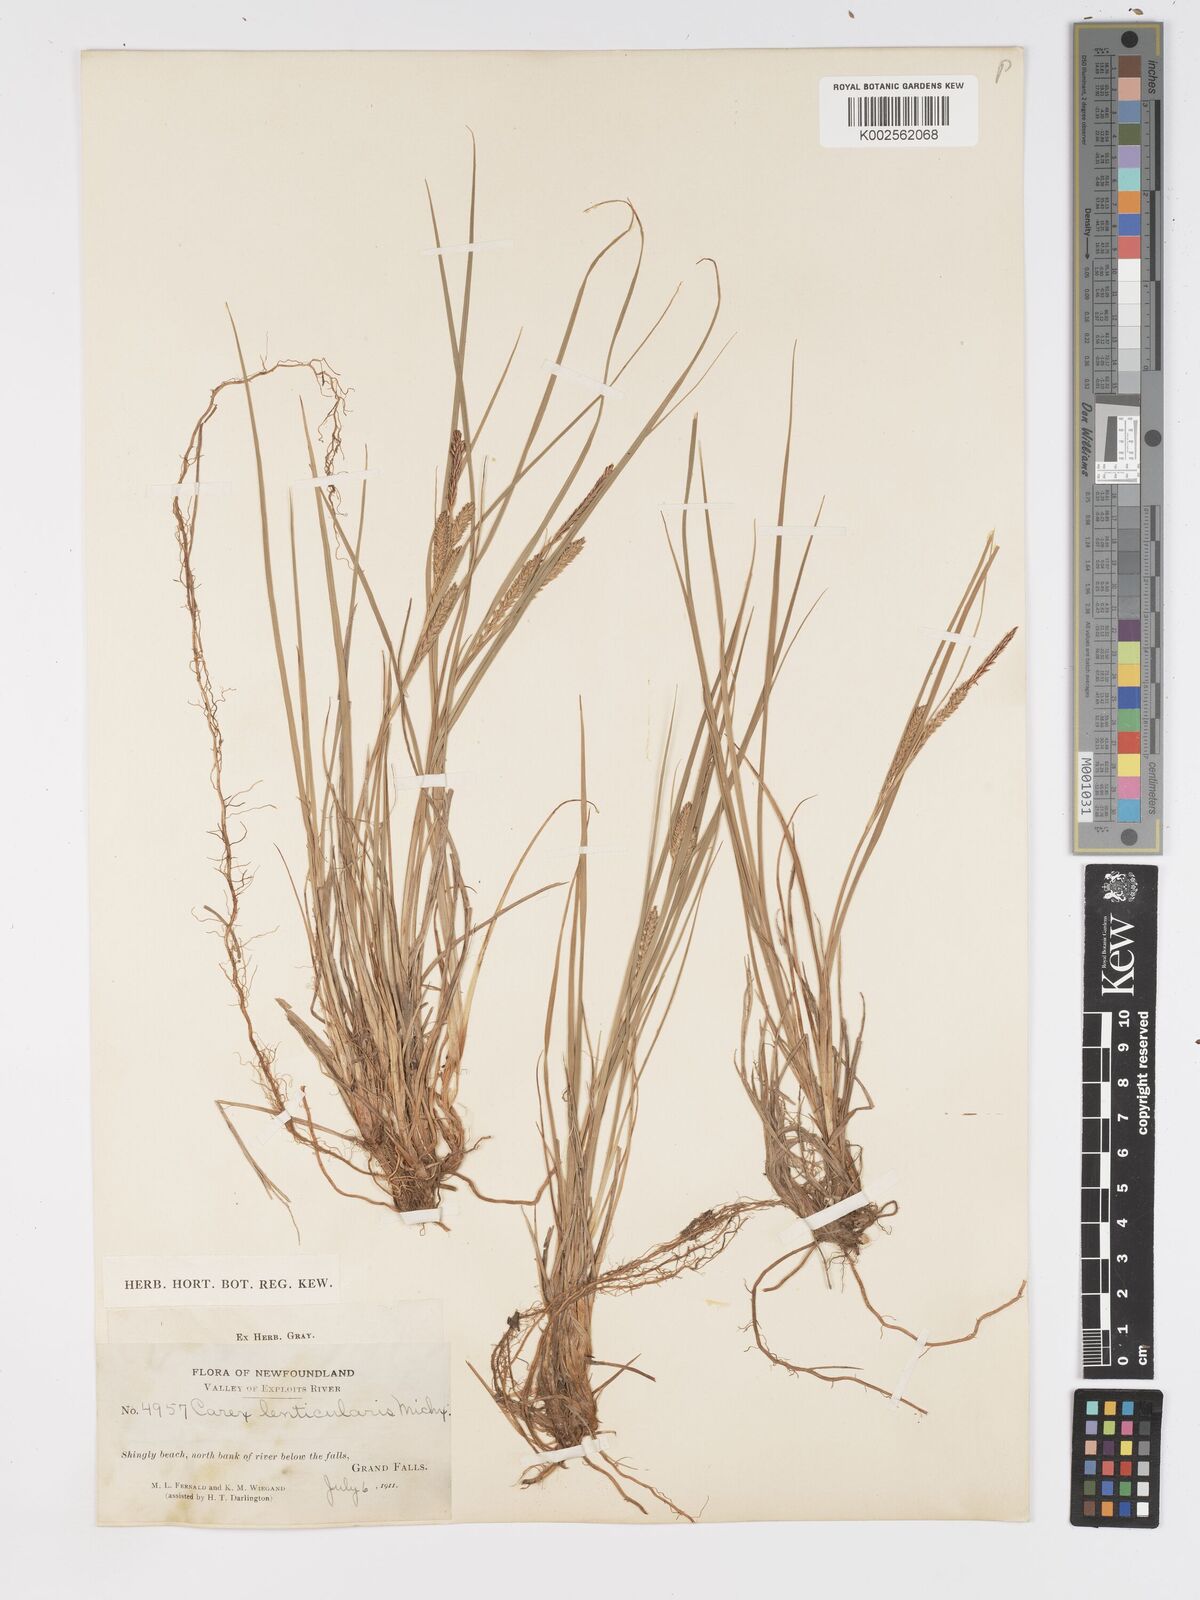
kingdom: Plantae
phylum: Tracheophyta
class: Liliopsida
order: Poales
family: Cyperaceae
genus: Carex
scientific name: Carex lenticularis
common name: Lakeshore sedge
